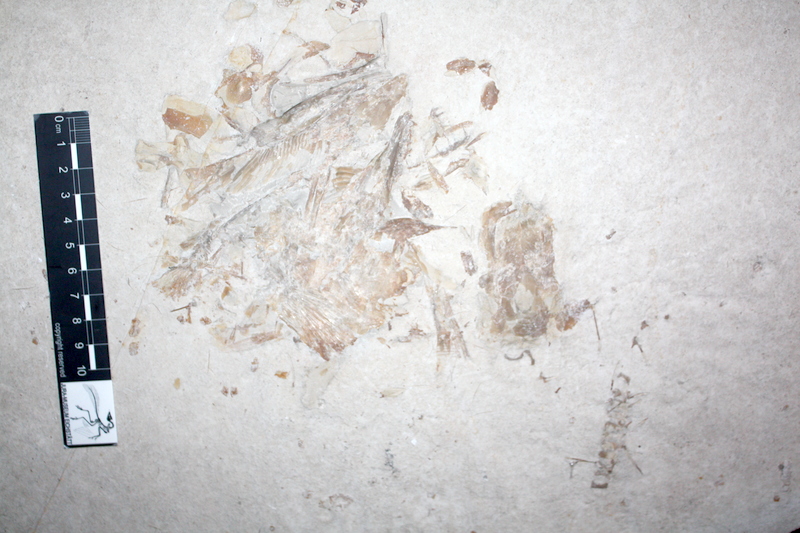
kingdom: Animalia
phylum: Chordata
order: Amiiformes
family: Caturidae
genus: Caturus
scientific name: Caturus
